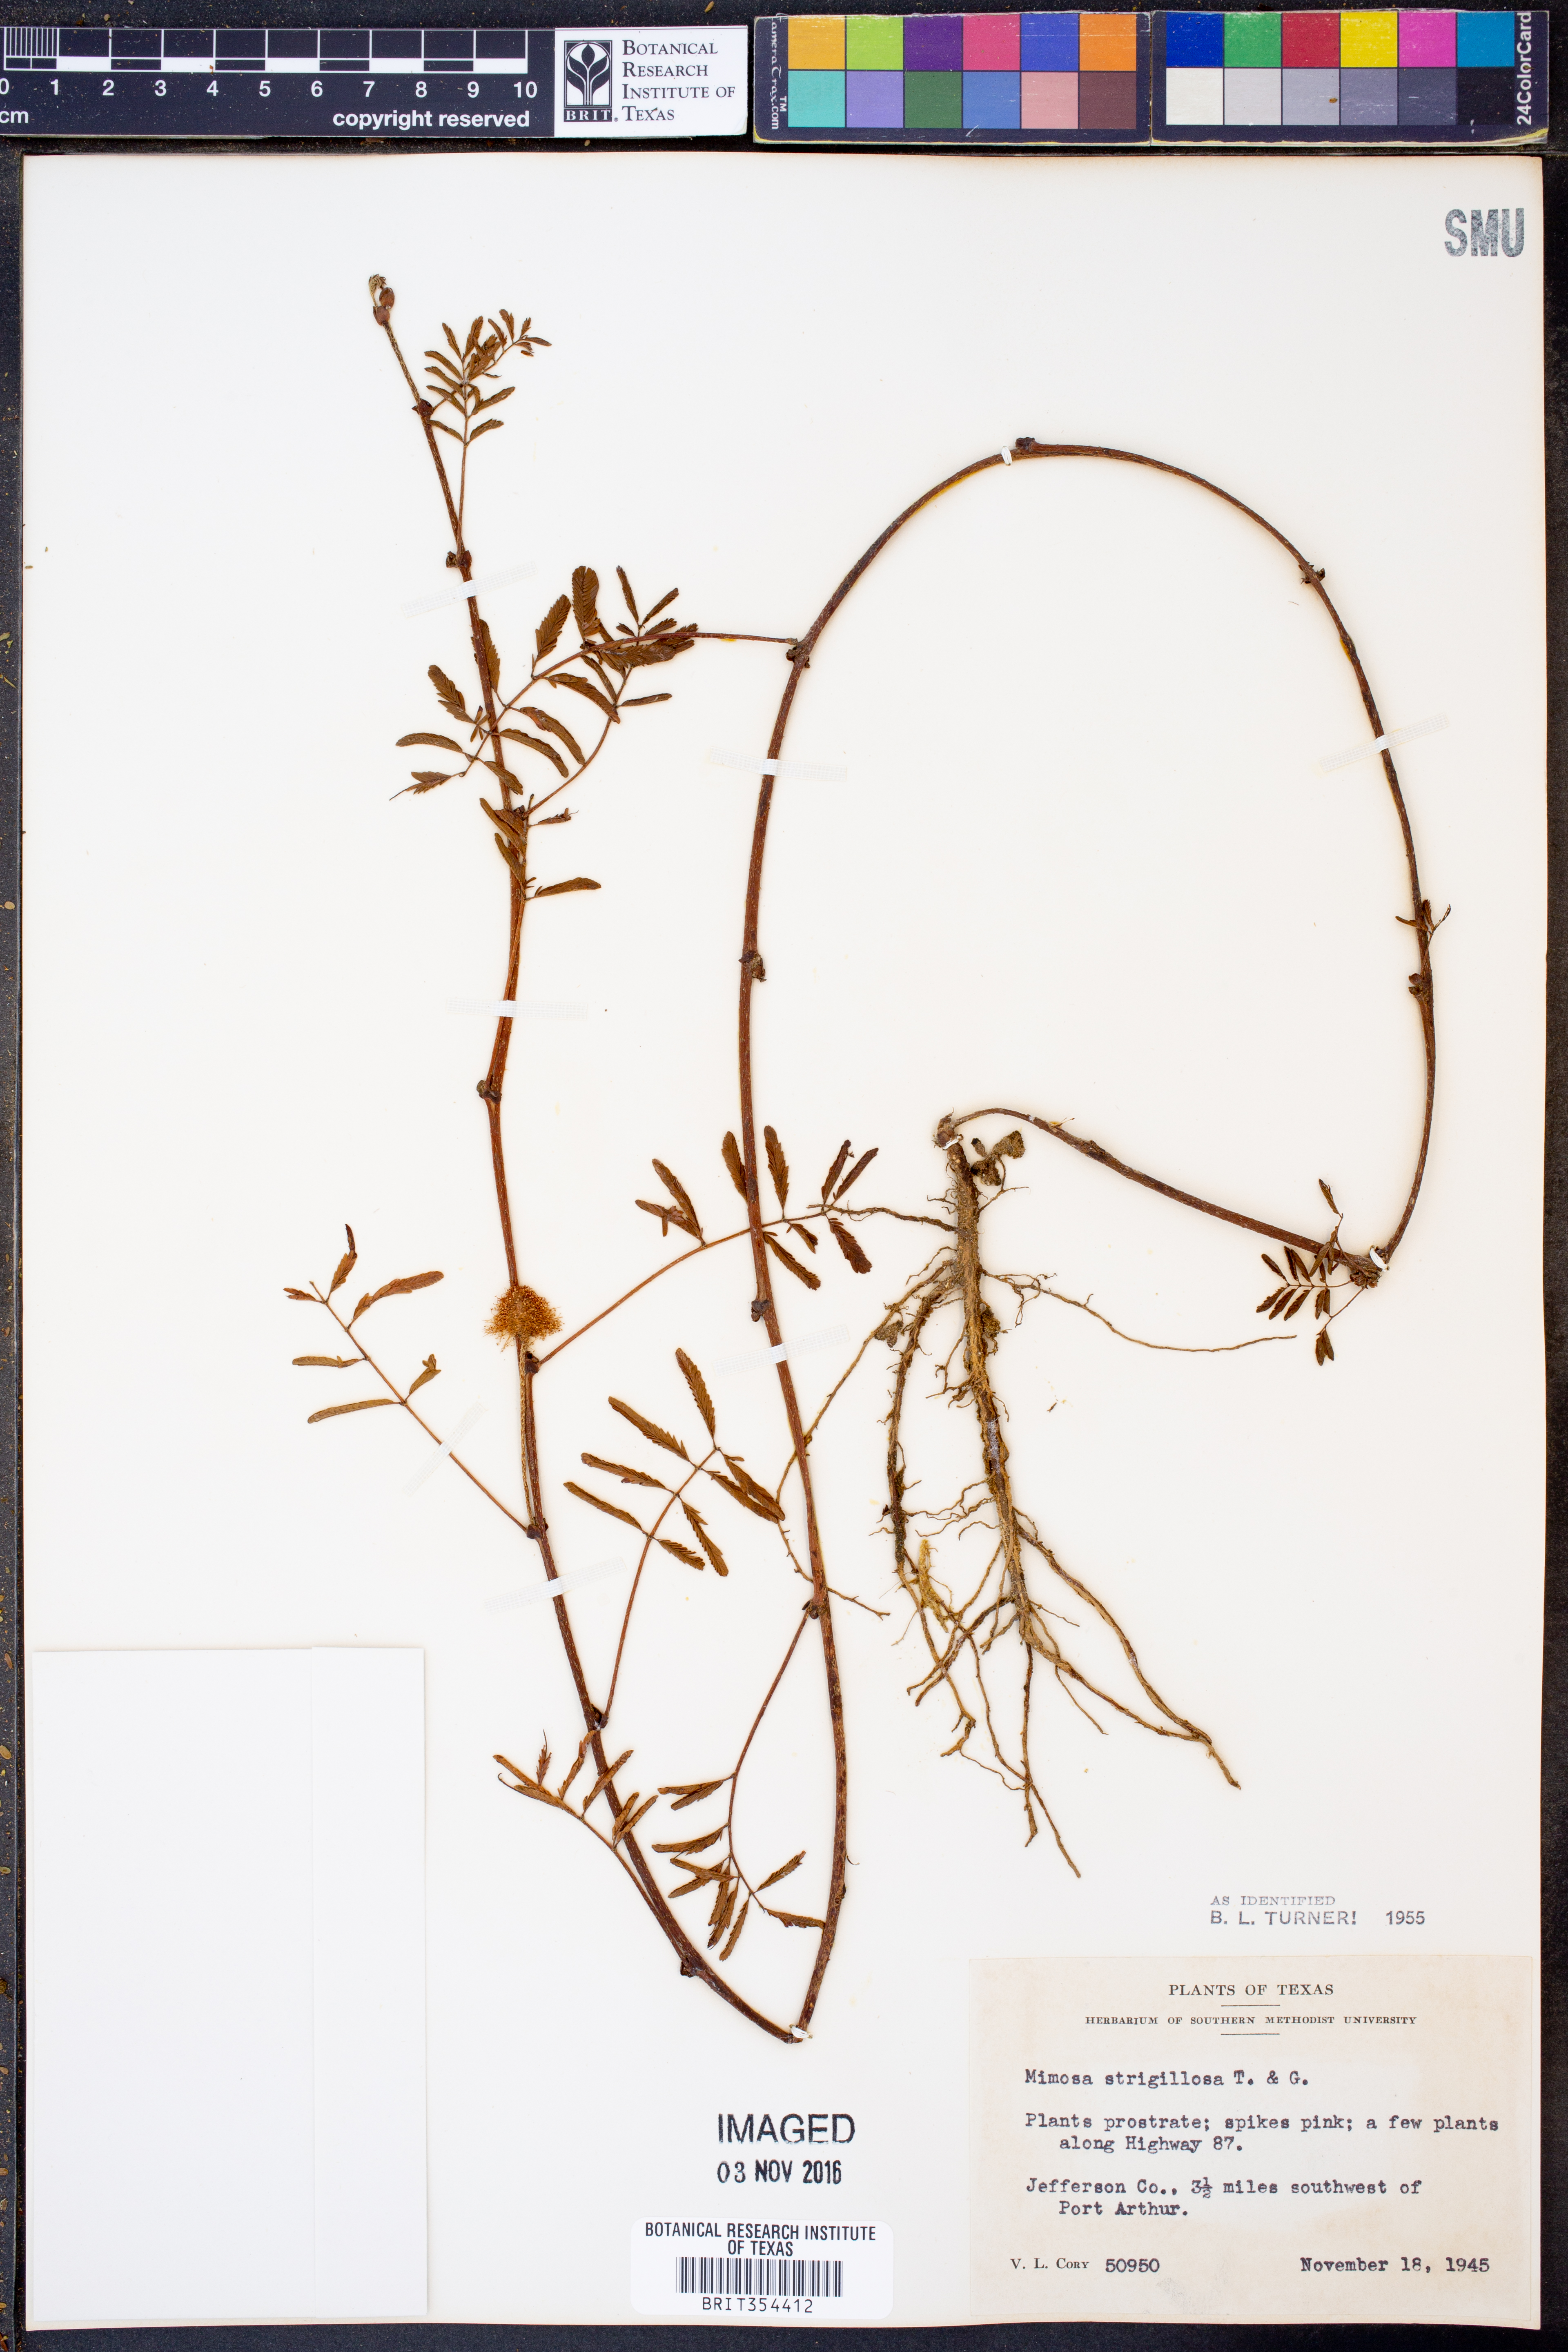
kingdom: Plantae
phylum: Tracheophyta
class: Magnoliopsida
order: Fabales
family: Fabaceae
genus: Mimosa
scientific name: Mimosa strigillosa
